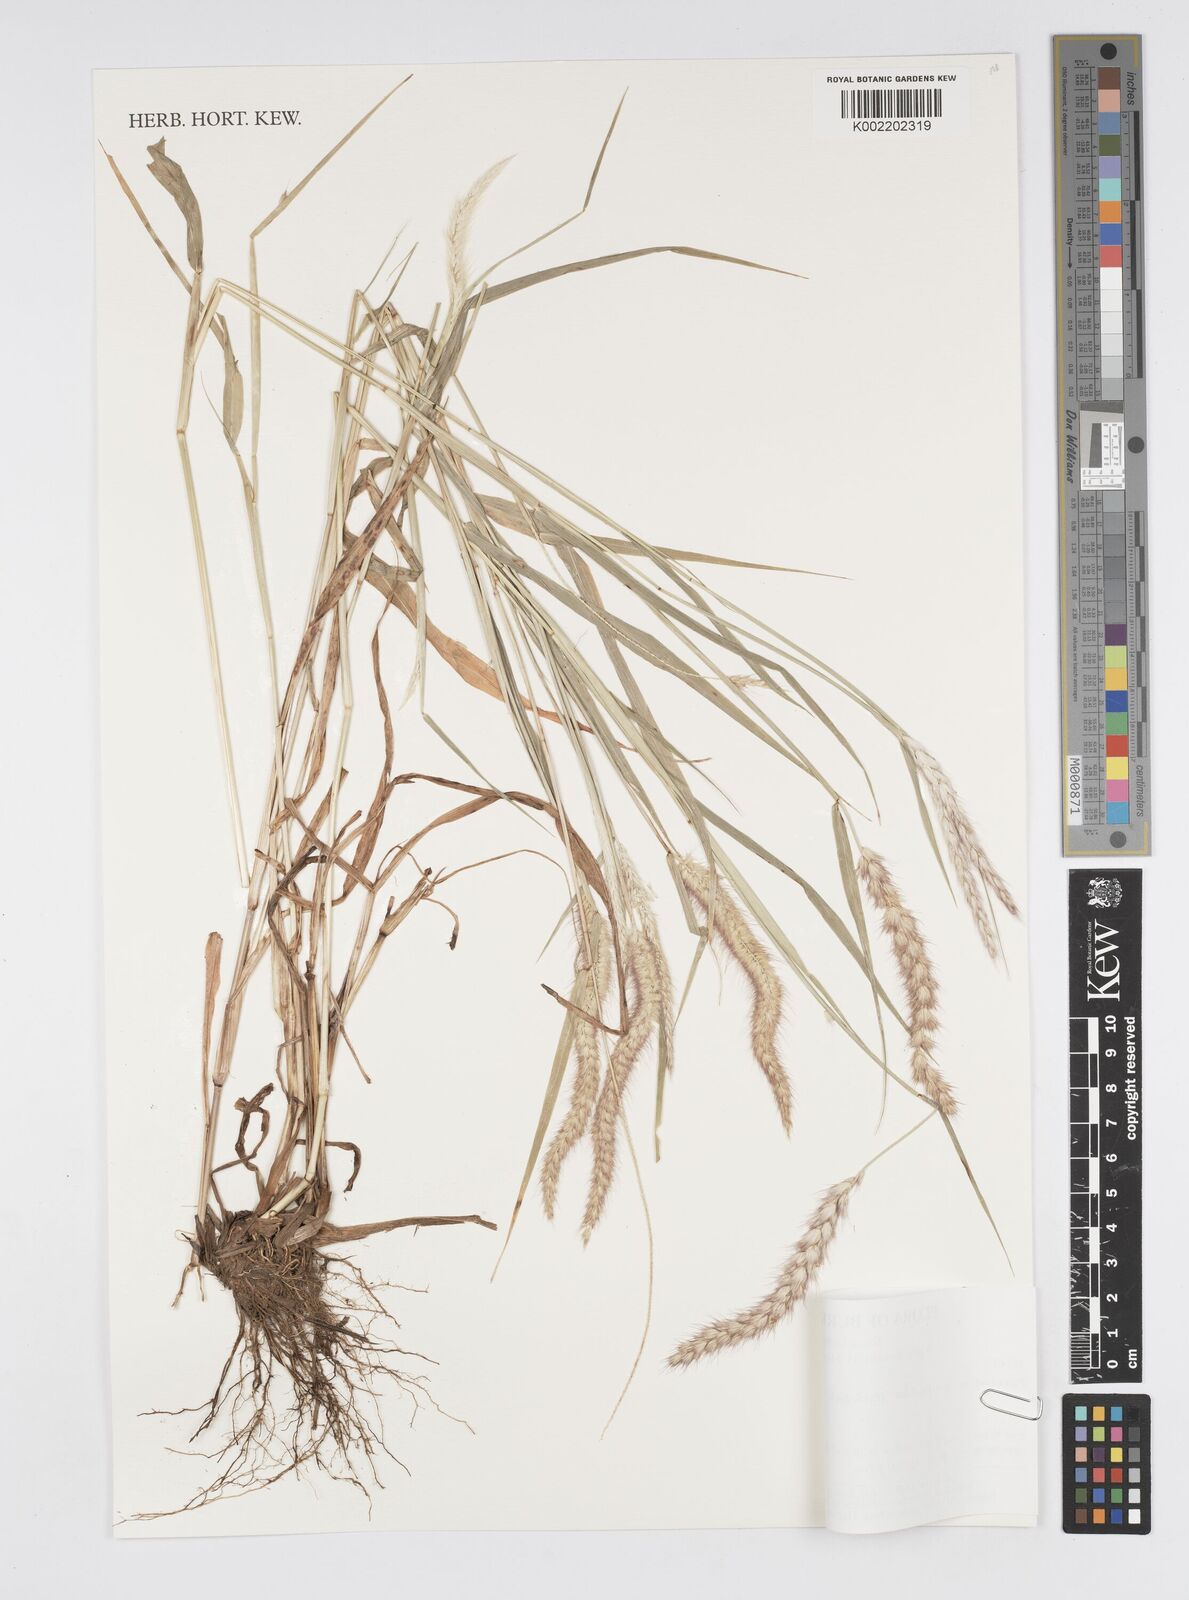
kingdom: Plantae
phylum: Tracheophyta
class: Liliopsida
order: Poales
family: Poaceae
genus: Setaria
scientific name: Setaria parviflora
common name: Knotroot bristle-grass
